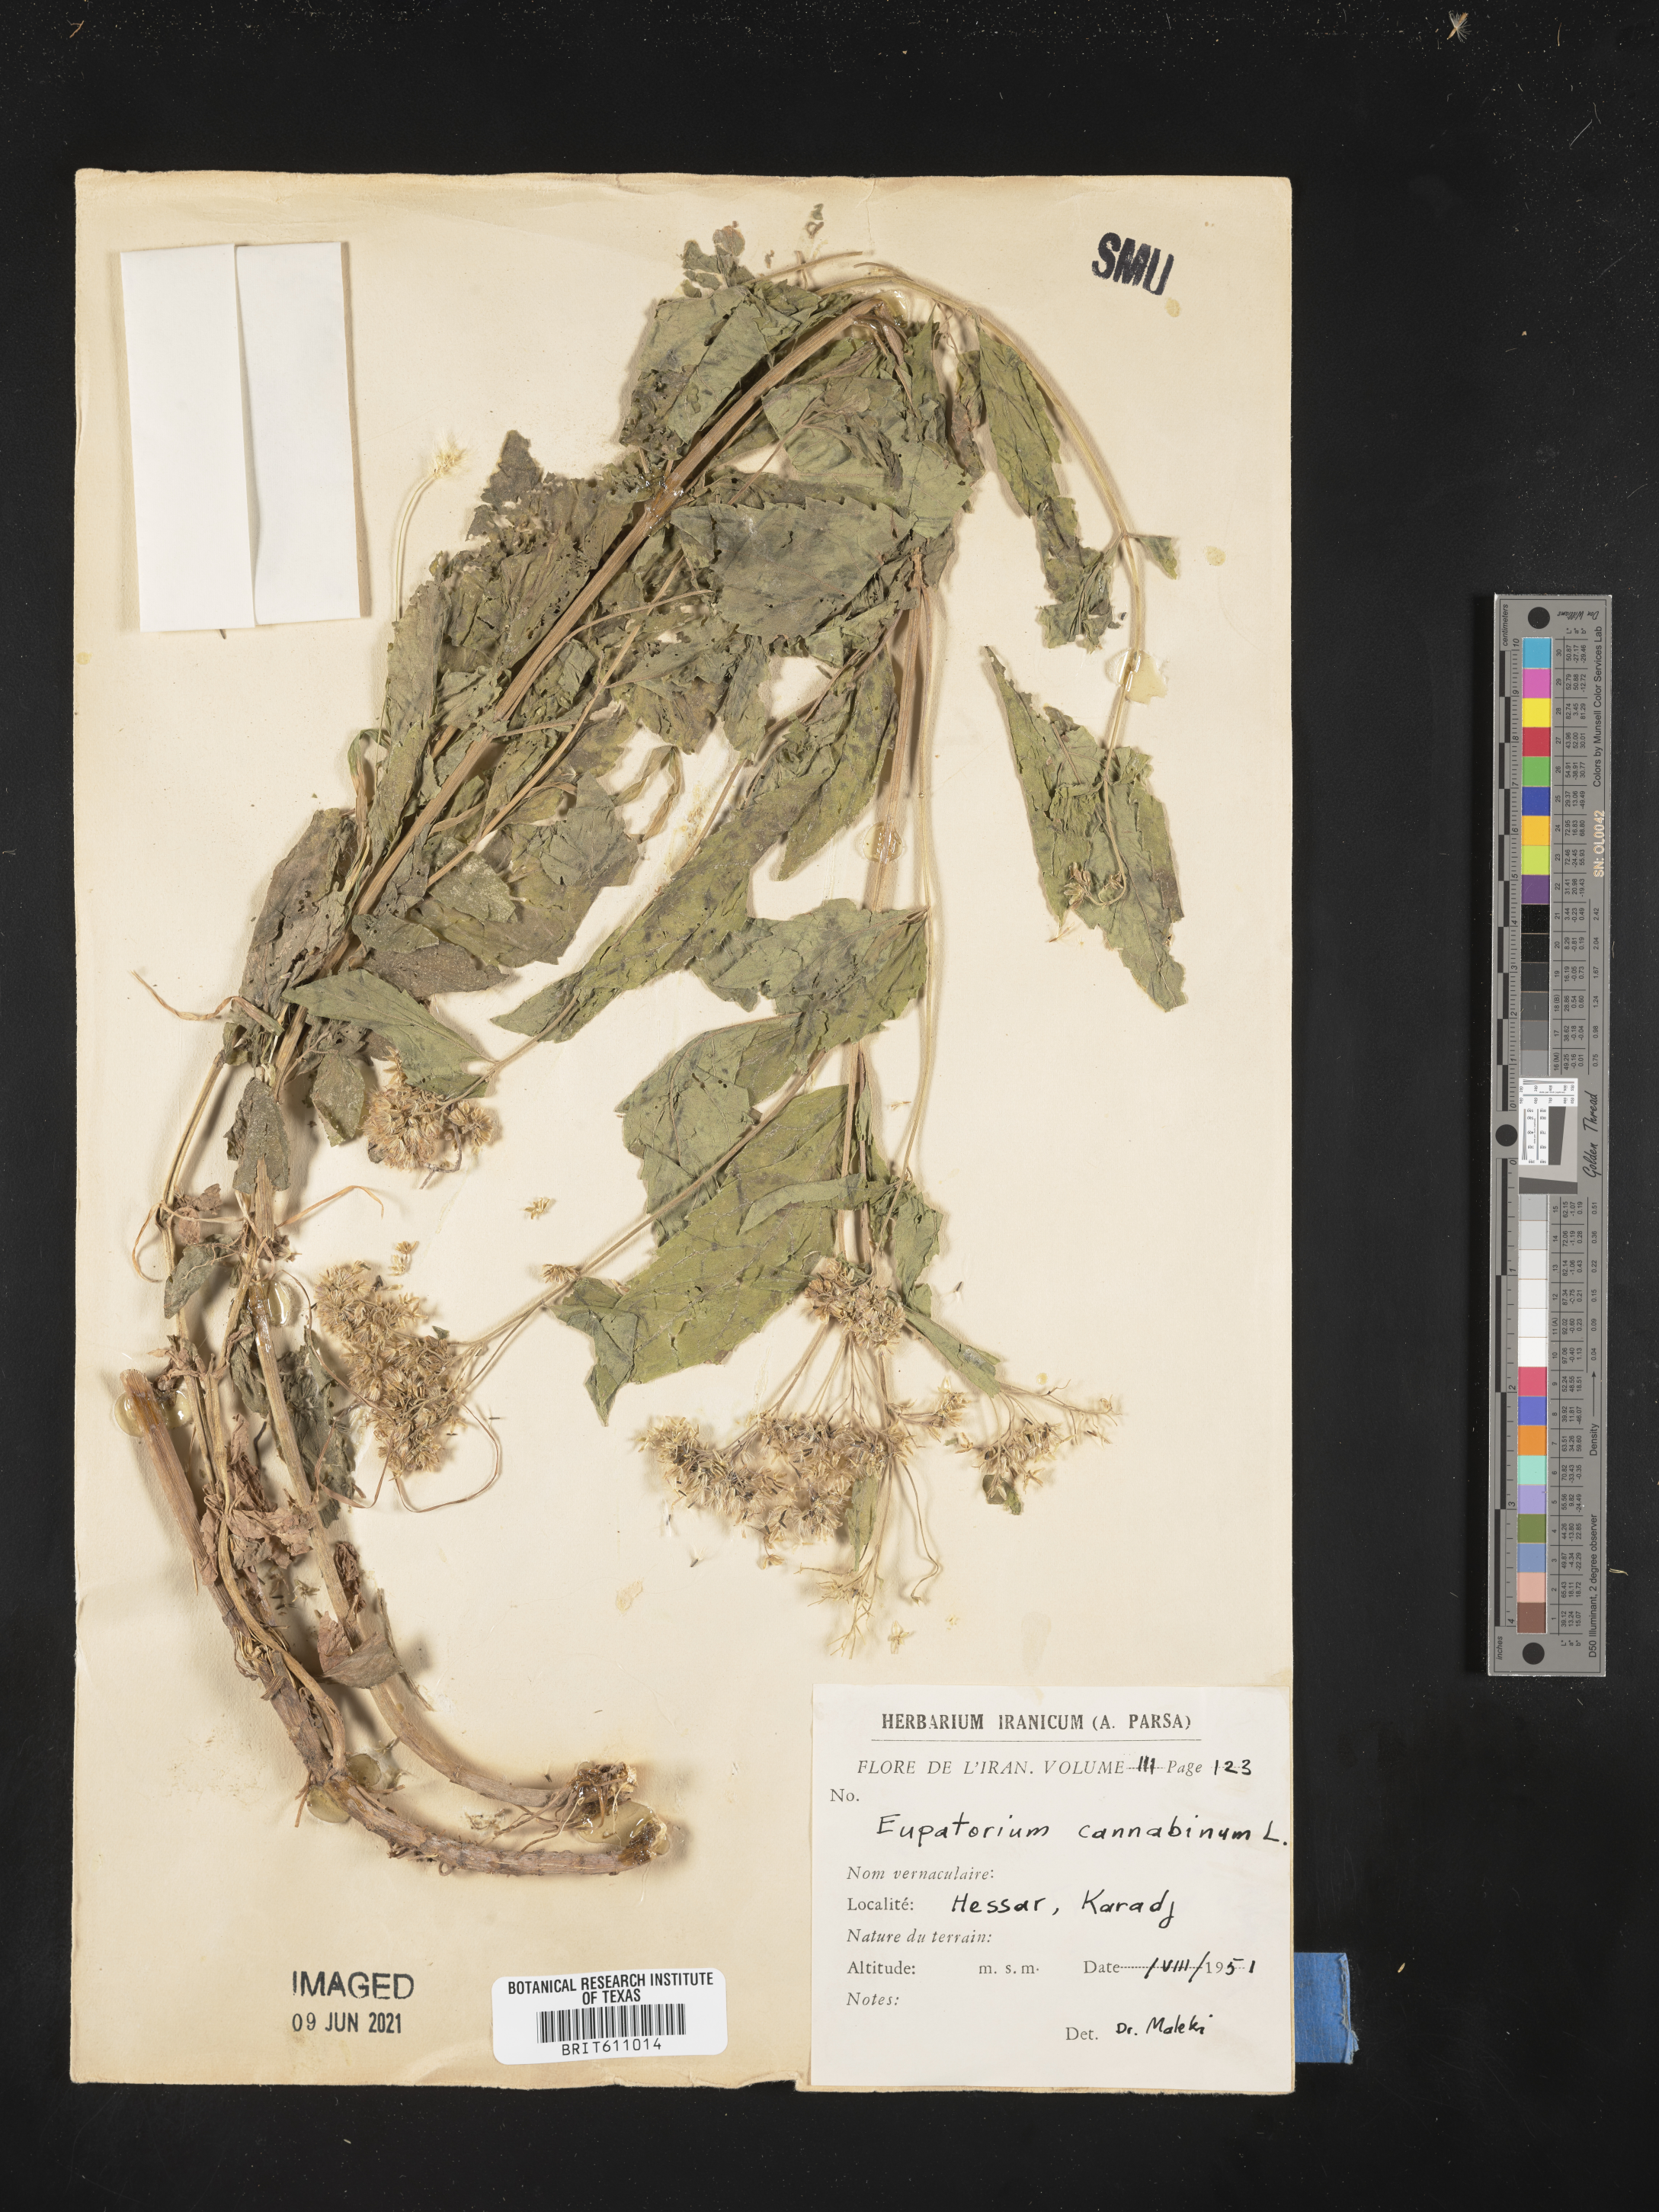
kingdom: Plantae
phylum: Tracheophyta
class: Magnoliopsida
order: Asterales
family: Asteraceae
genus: Eupatorium
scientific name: Eupatorium cannabinum
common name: Hemp-agrimony
